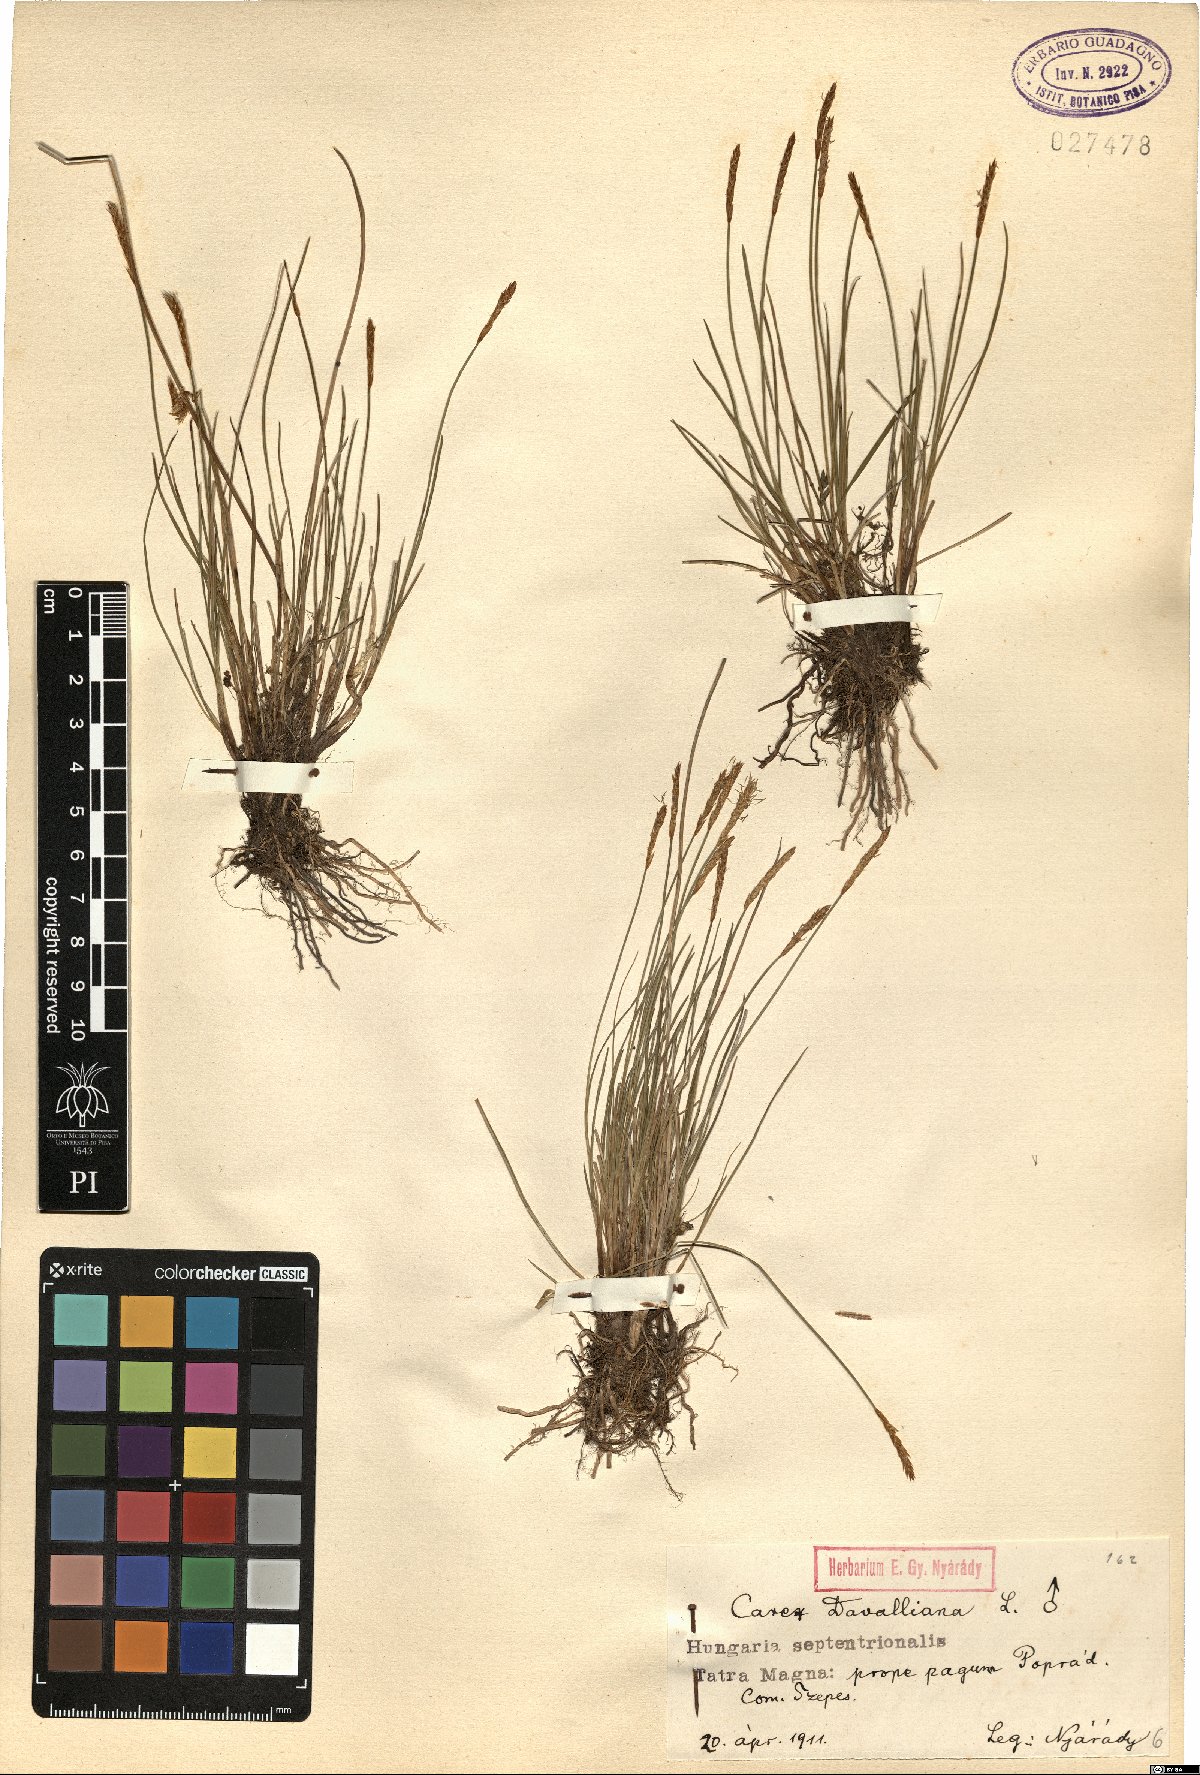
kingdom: Plantae
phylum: Tracheophyta
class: Liliopsida
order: Poales
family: Cyperaceae
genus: Carex
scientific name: Carex davalliana
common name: Davall's sedge
